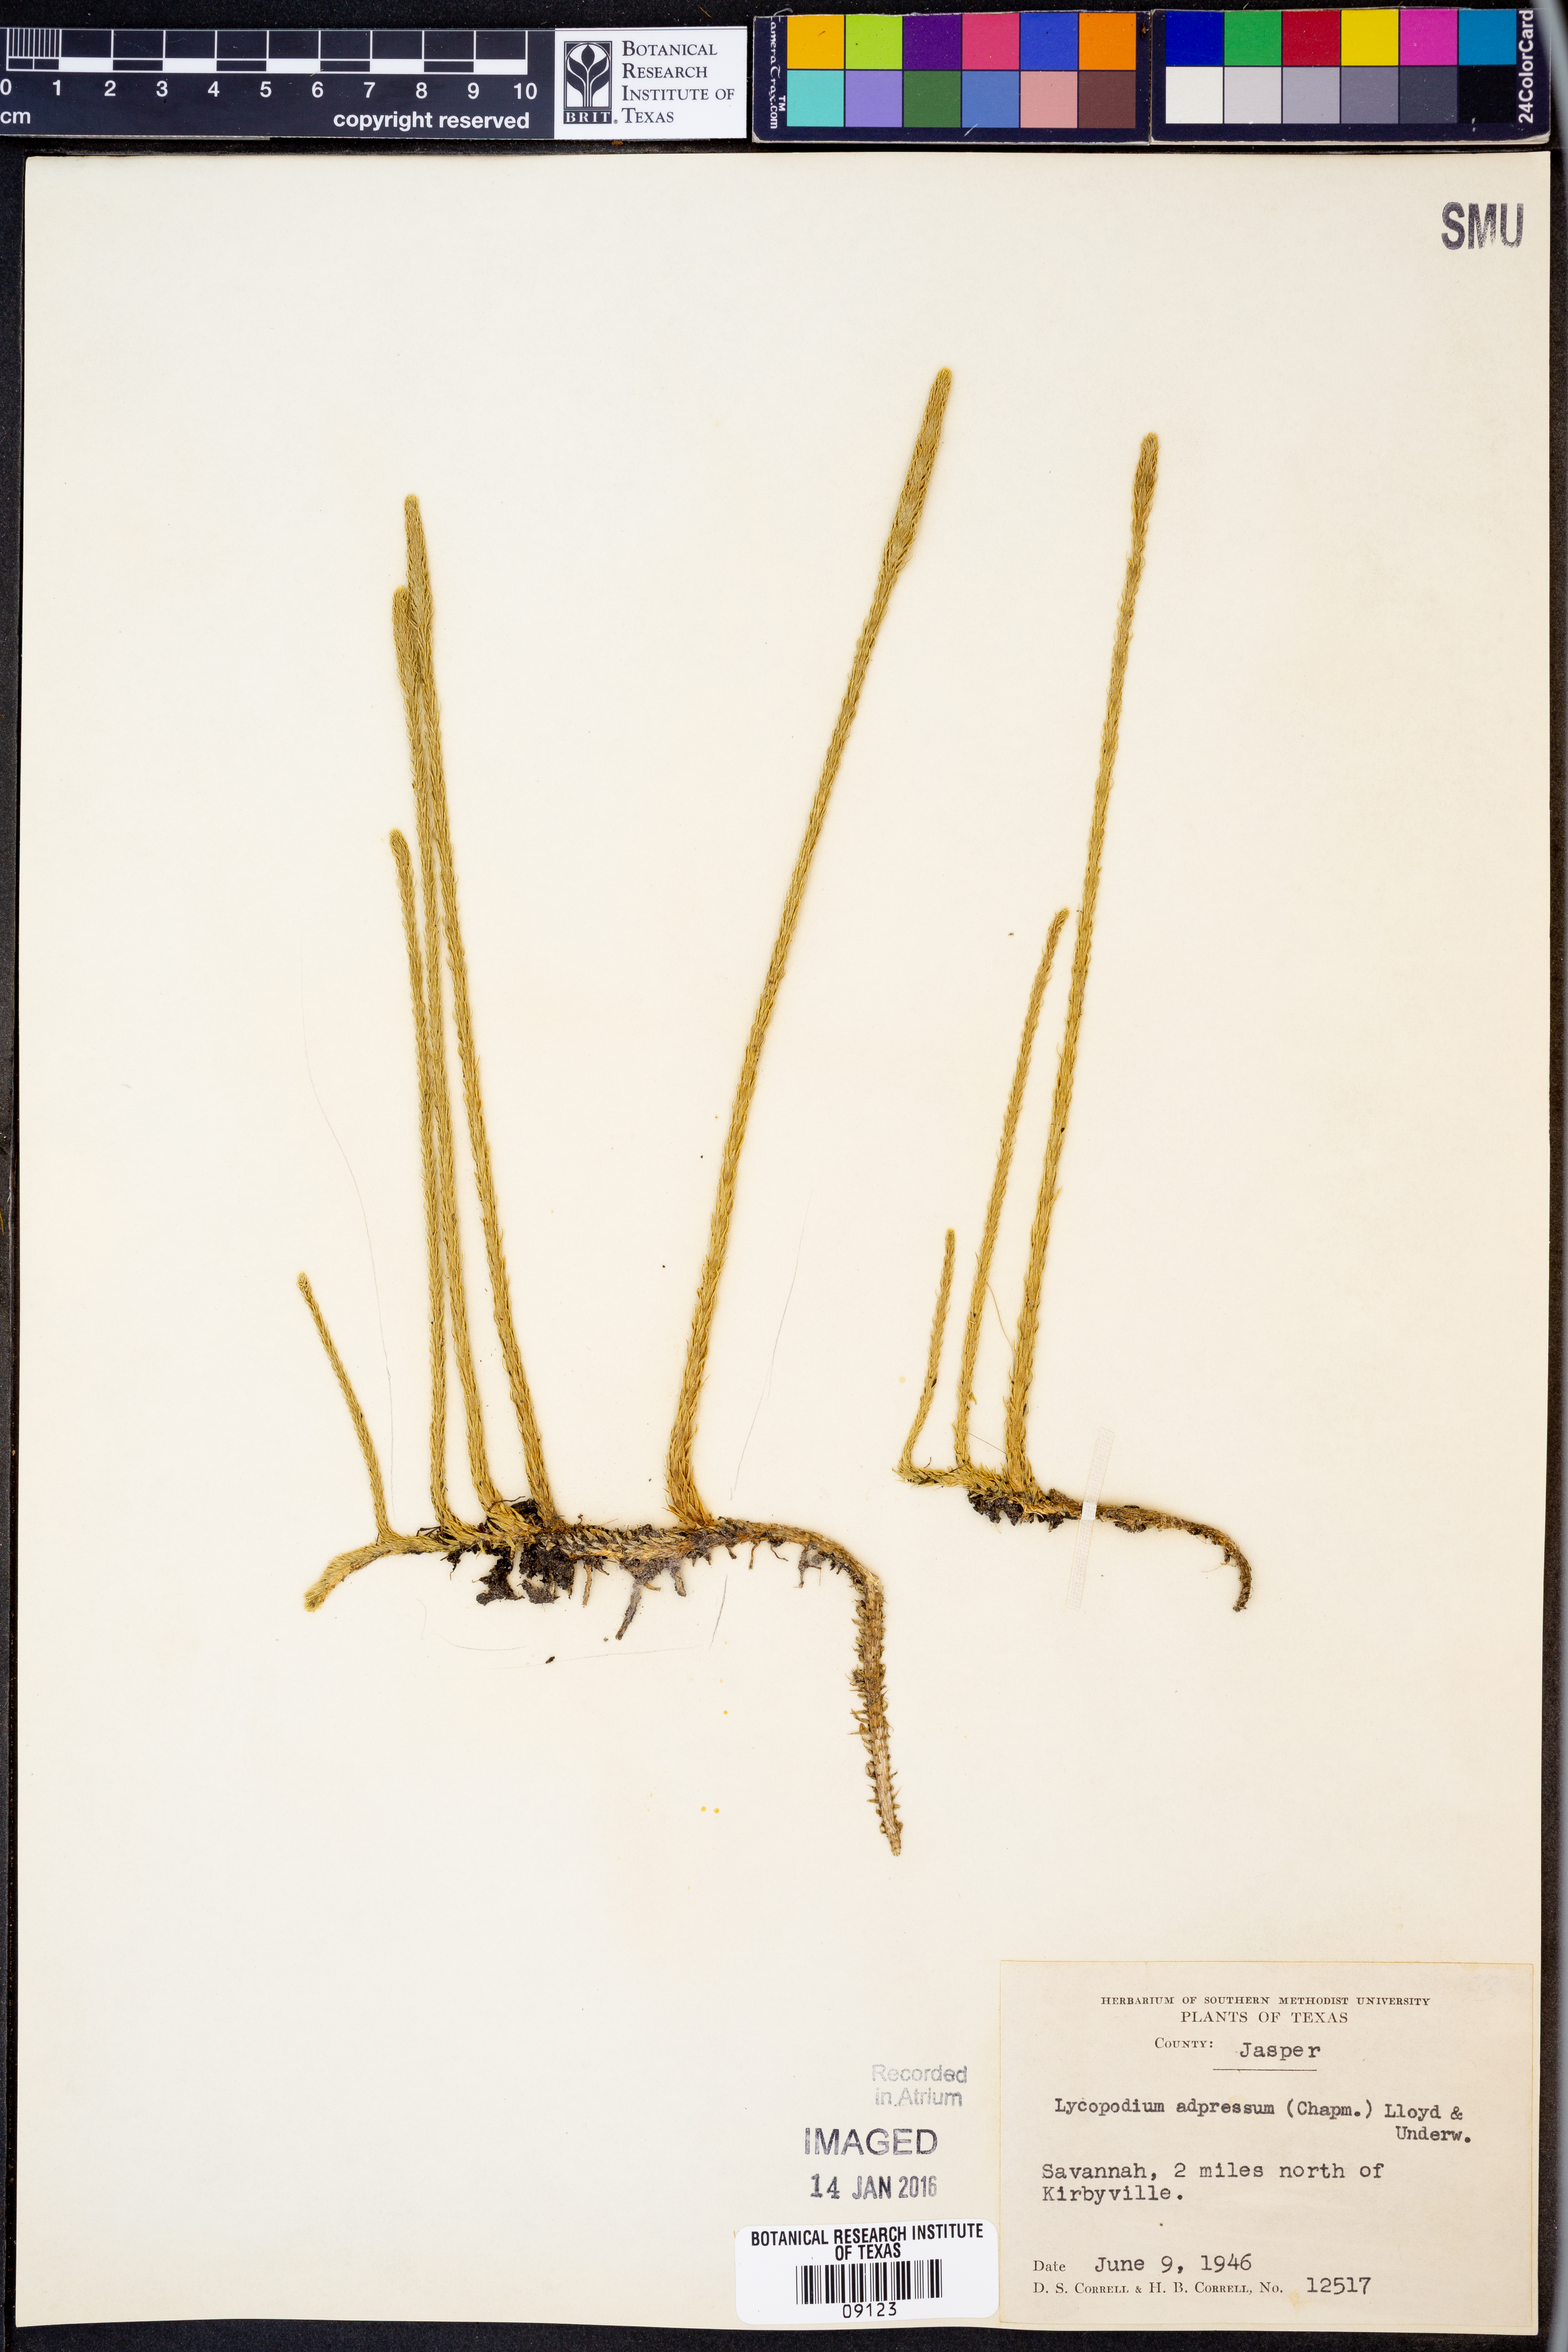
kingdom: Plantae
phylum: Tracheophyta
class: Lycopodiopsida
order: Lycopodiales
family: Lycopodiaceae
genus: Lycopodiella
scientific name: Lycopodiella appressa
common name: Appressed bog clubmoss
